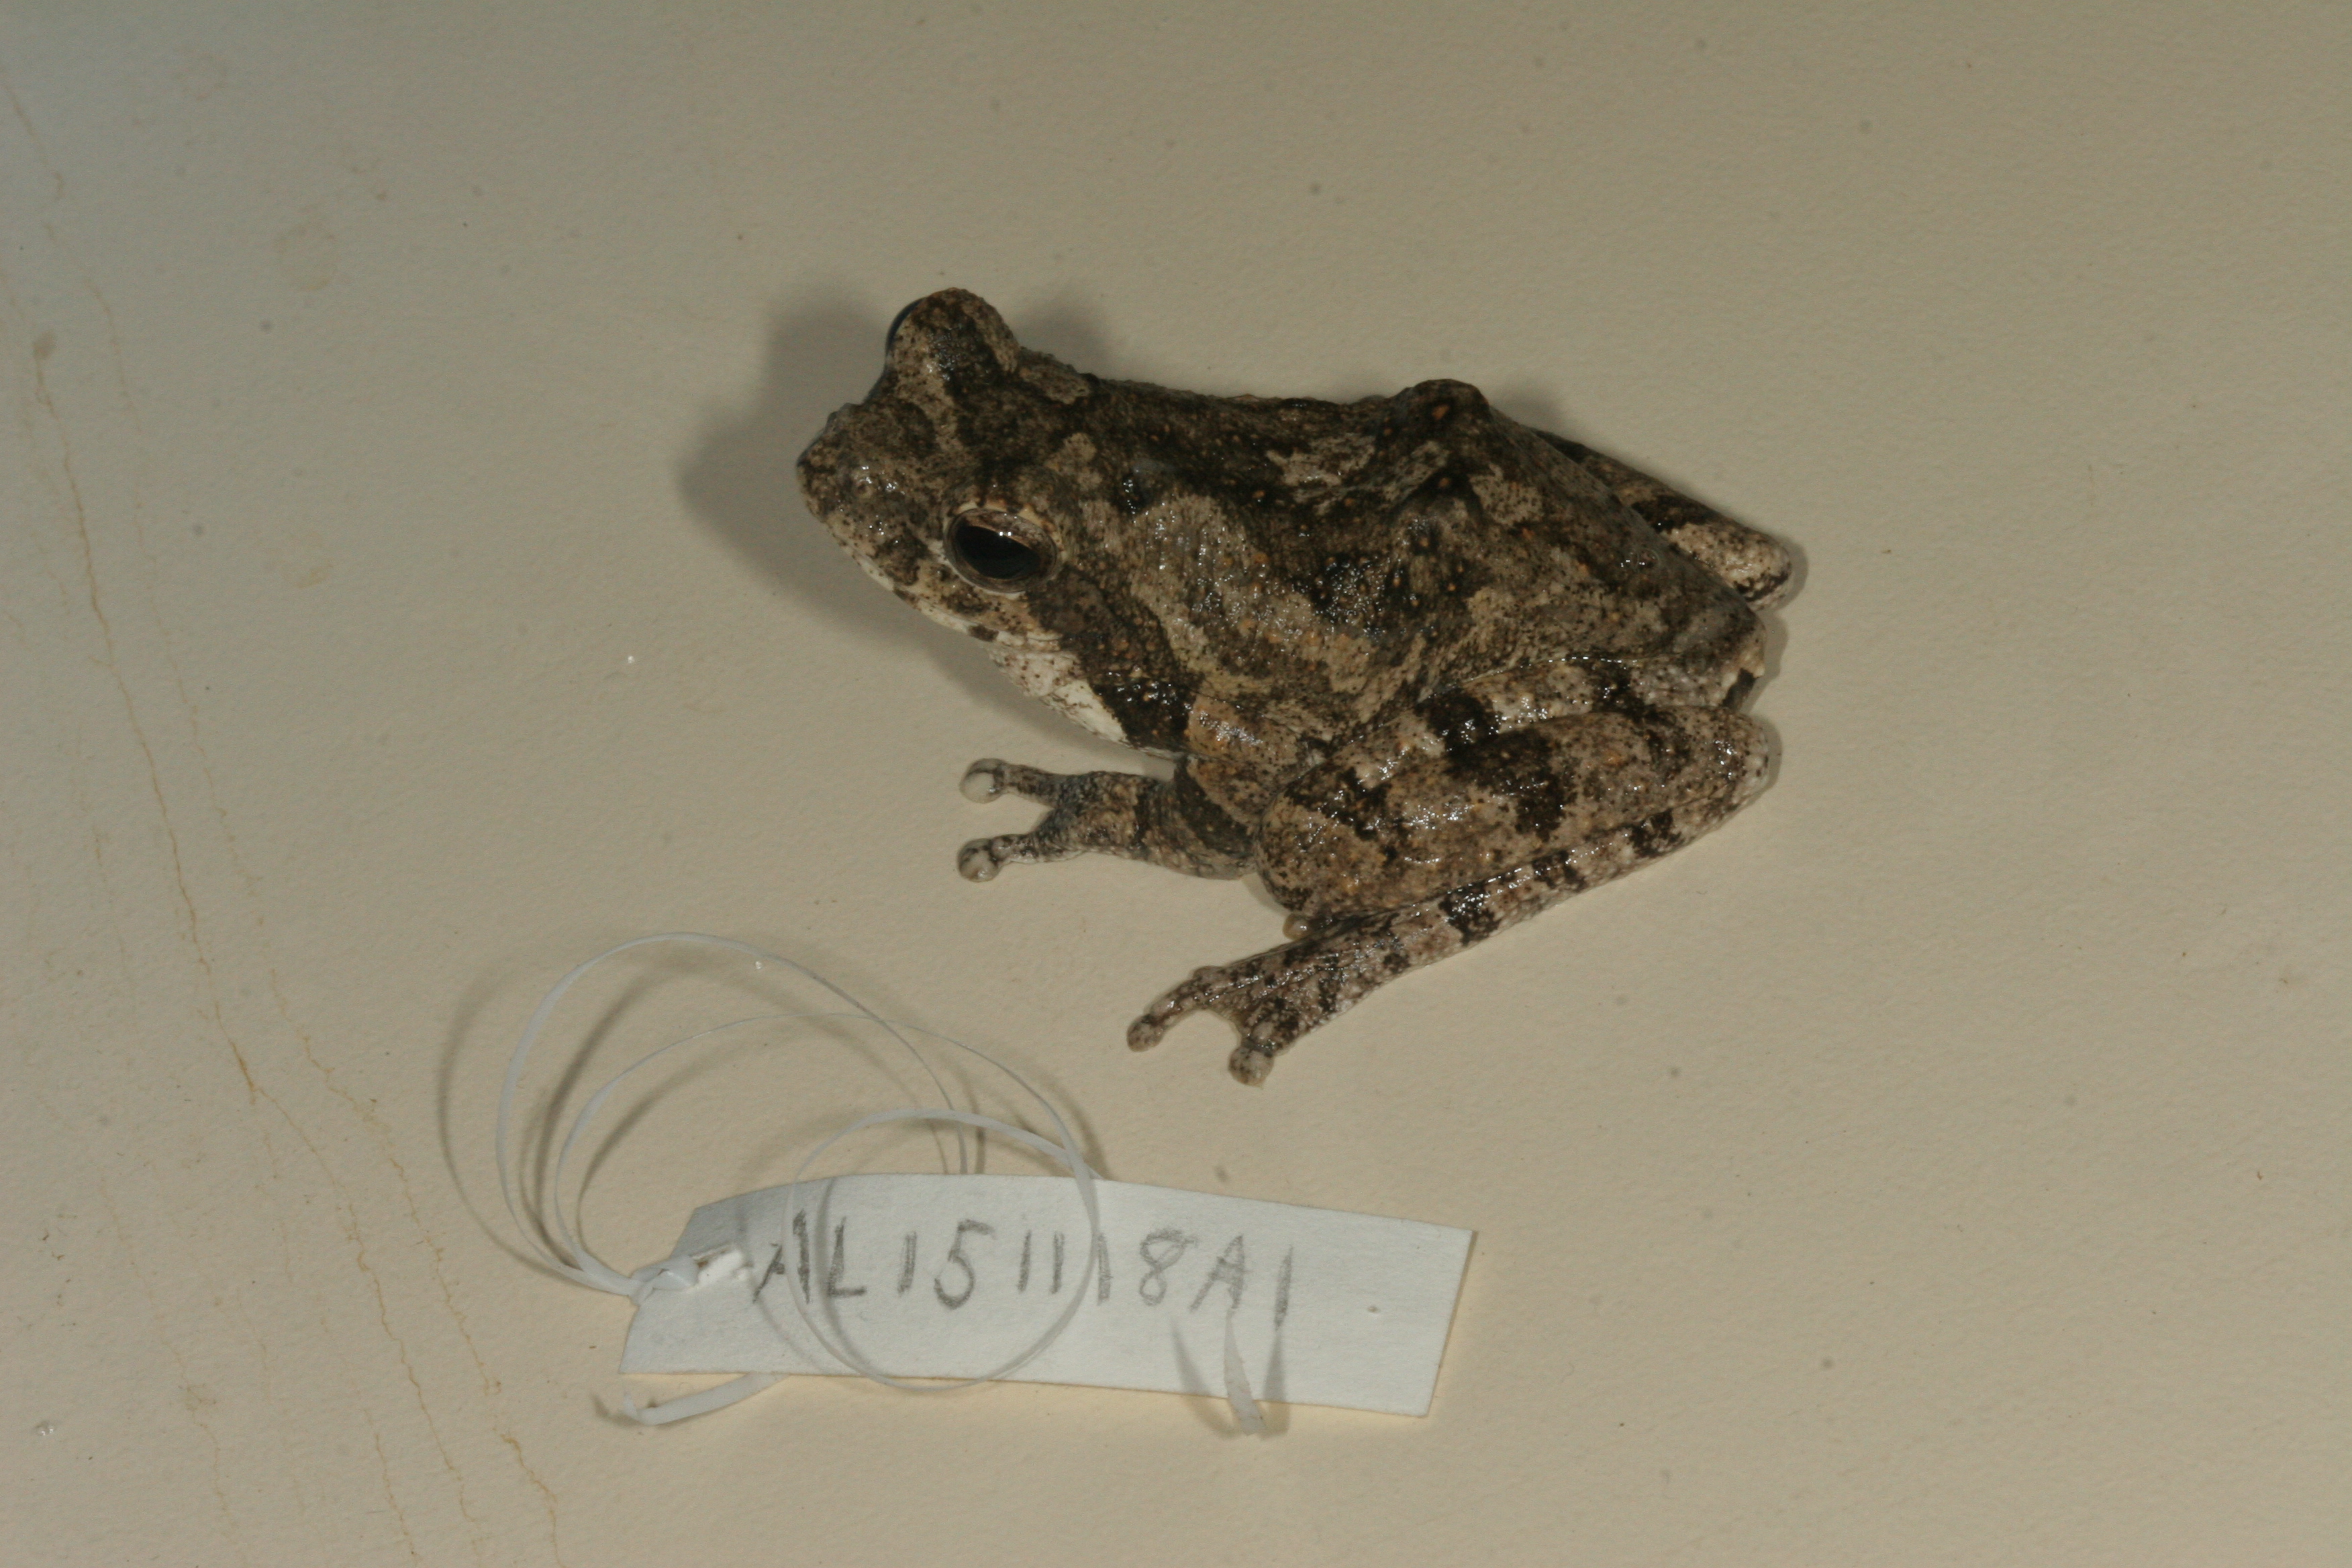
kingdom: Animalia
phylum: Chordata
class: Amphibia
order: Anura
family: Rhacophoridae
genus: Chiromantis
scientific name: Chiromantis xerampelina
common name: African gray treefrog
